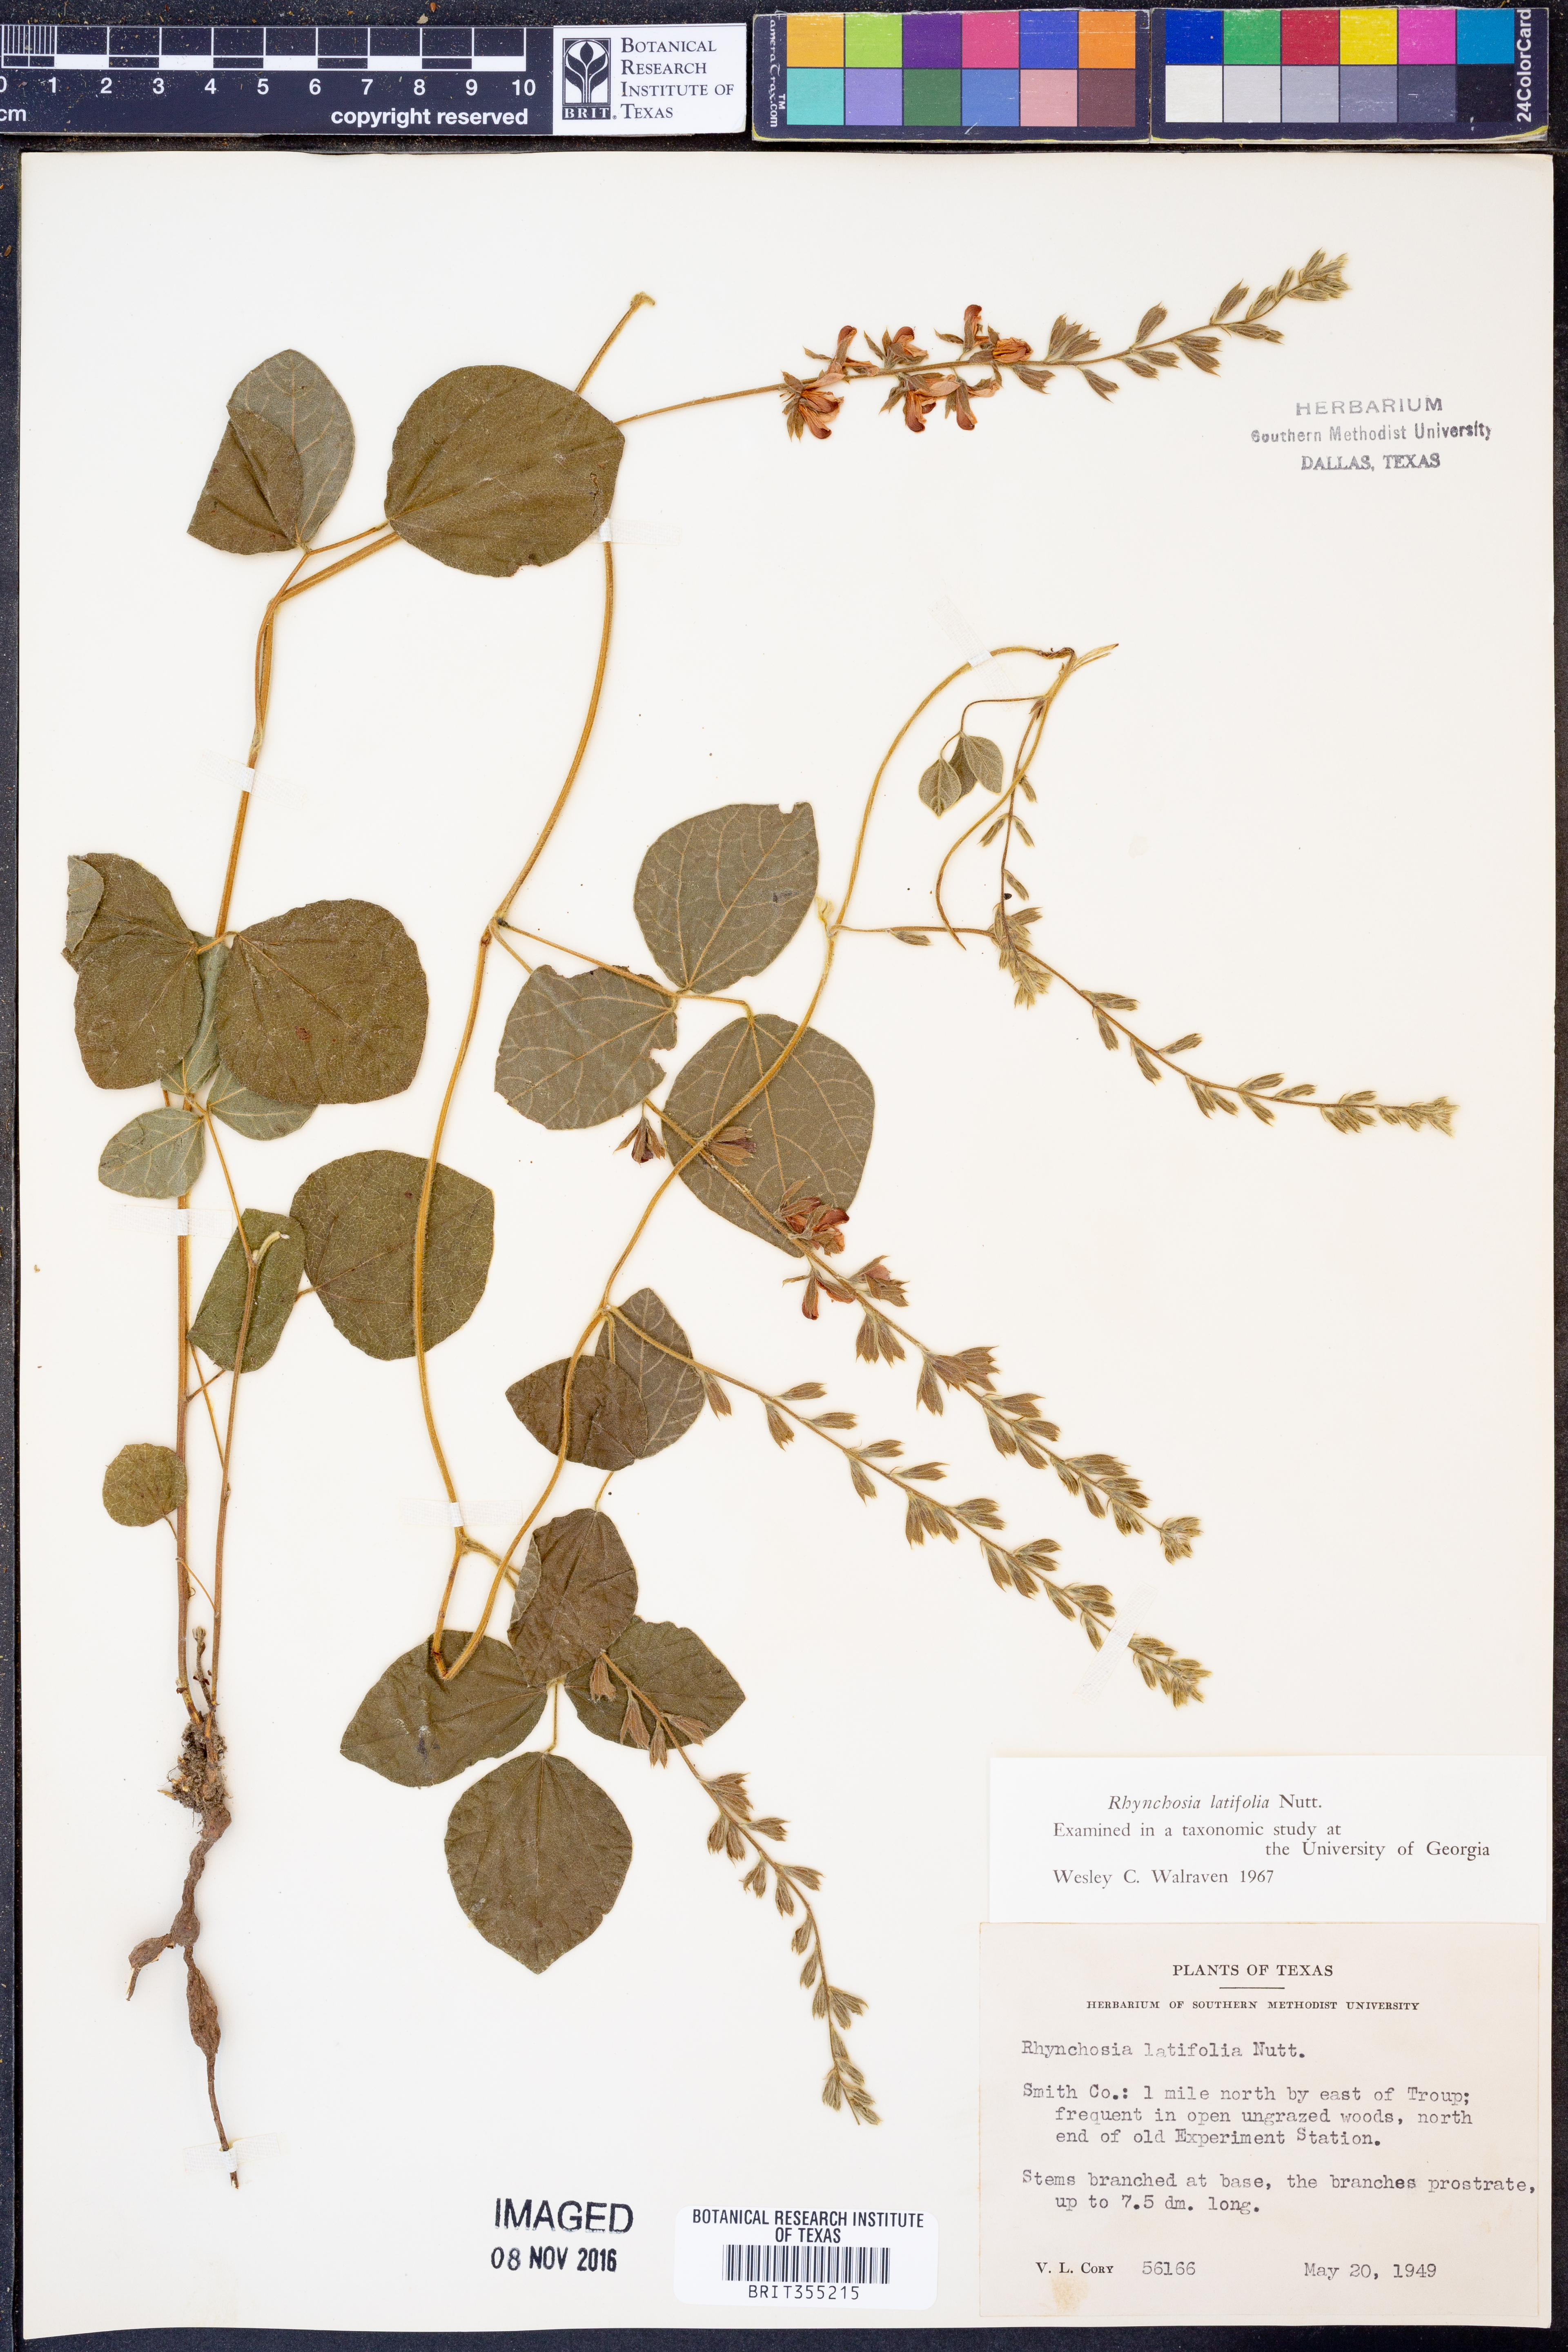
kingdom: Plantae
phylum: Tracheophyta
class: Magnoliopsida
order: Fabales
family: Fabaceae
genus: Rhynchosia
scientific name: Rhynchosia latifolia
